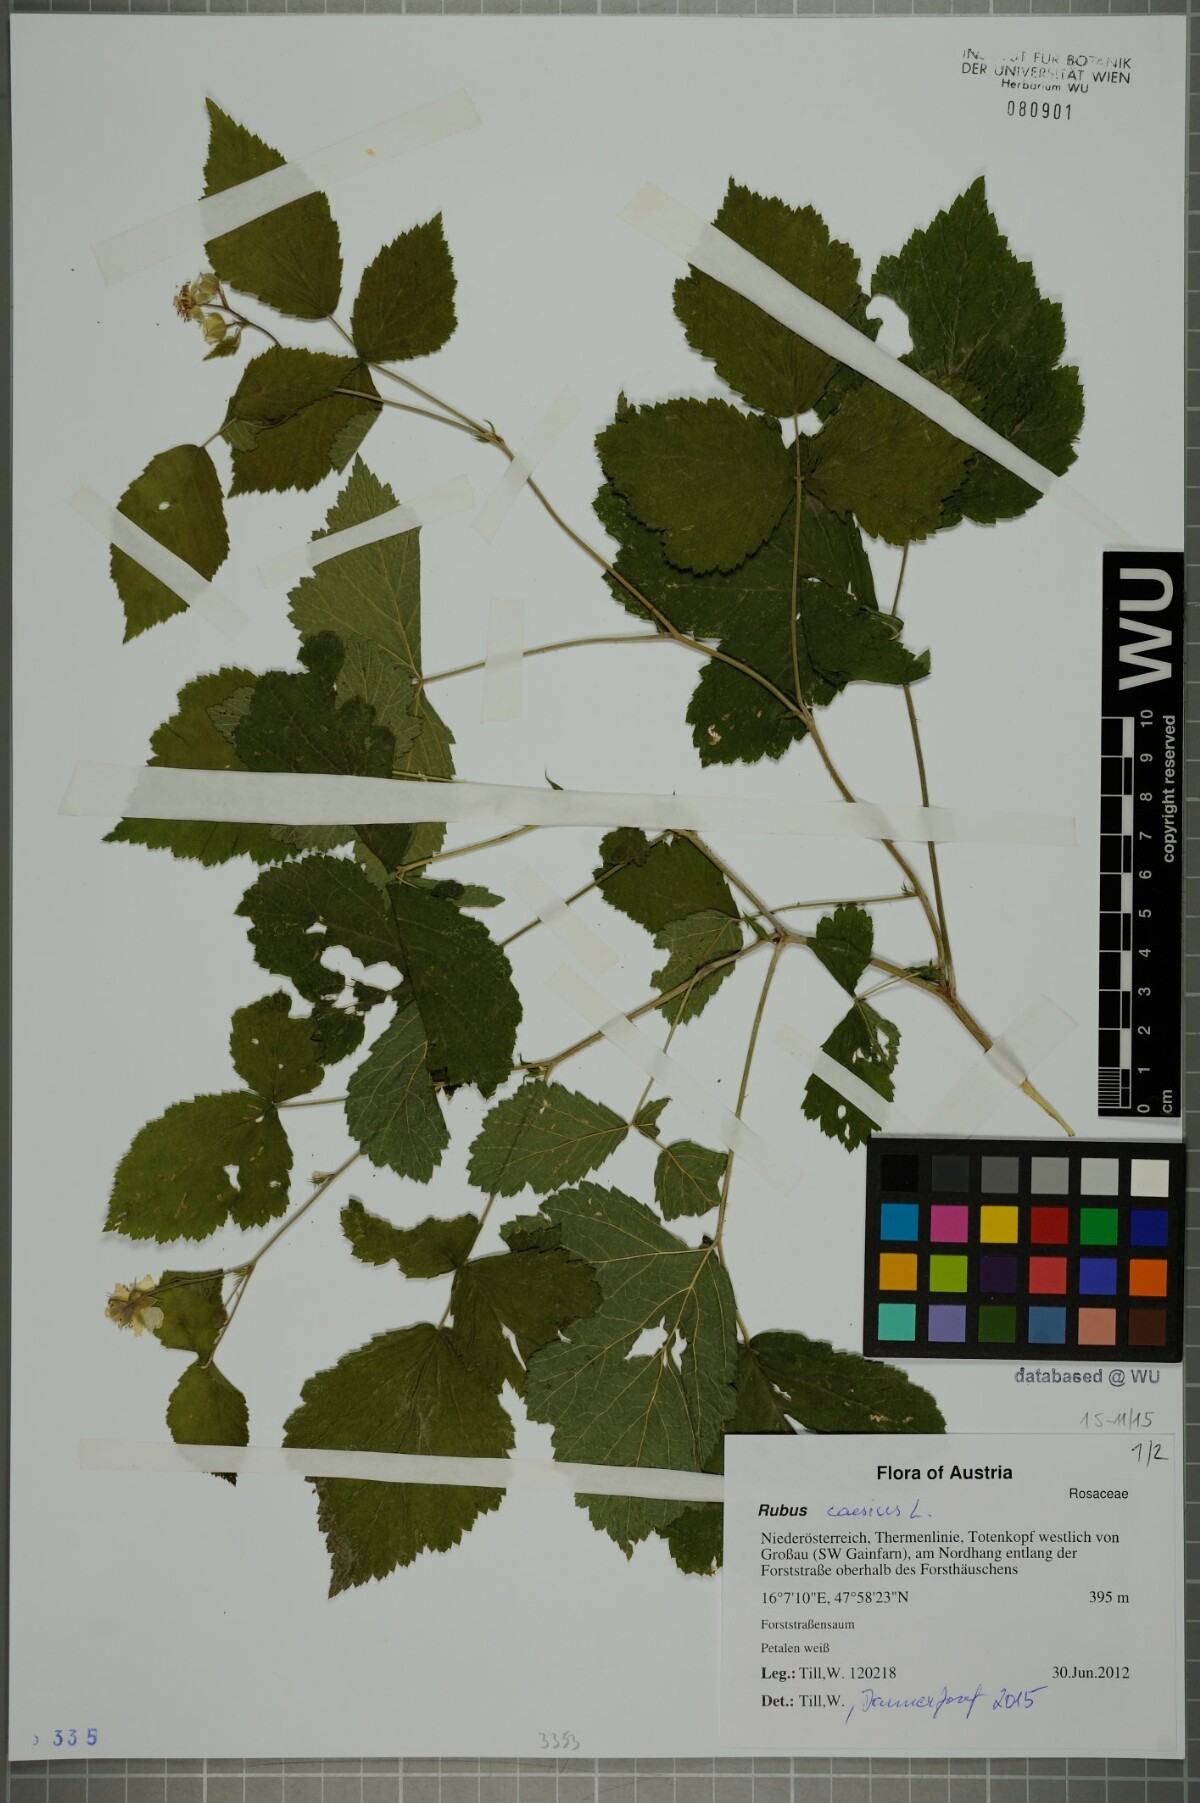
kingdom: Plantae
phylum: Tracheophyta
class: Magnoliopsida
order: Rosales
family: Rosaceae
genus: Rubus
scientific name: Rubus caesius
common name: Dewberry
